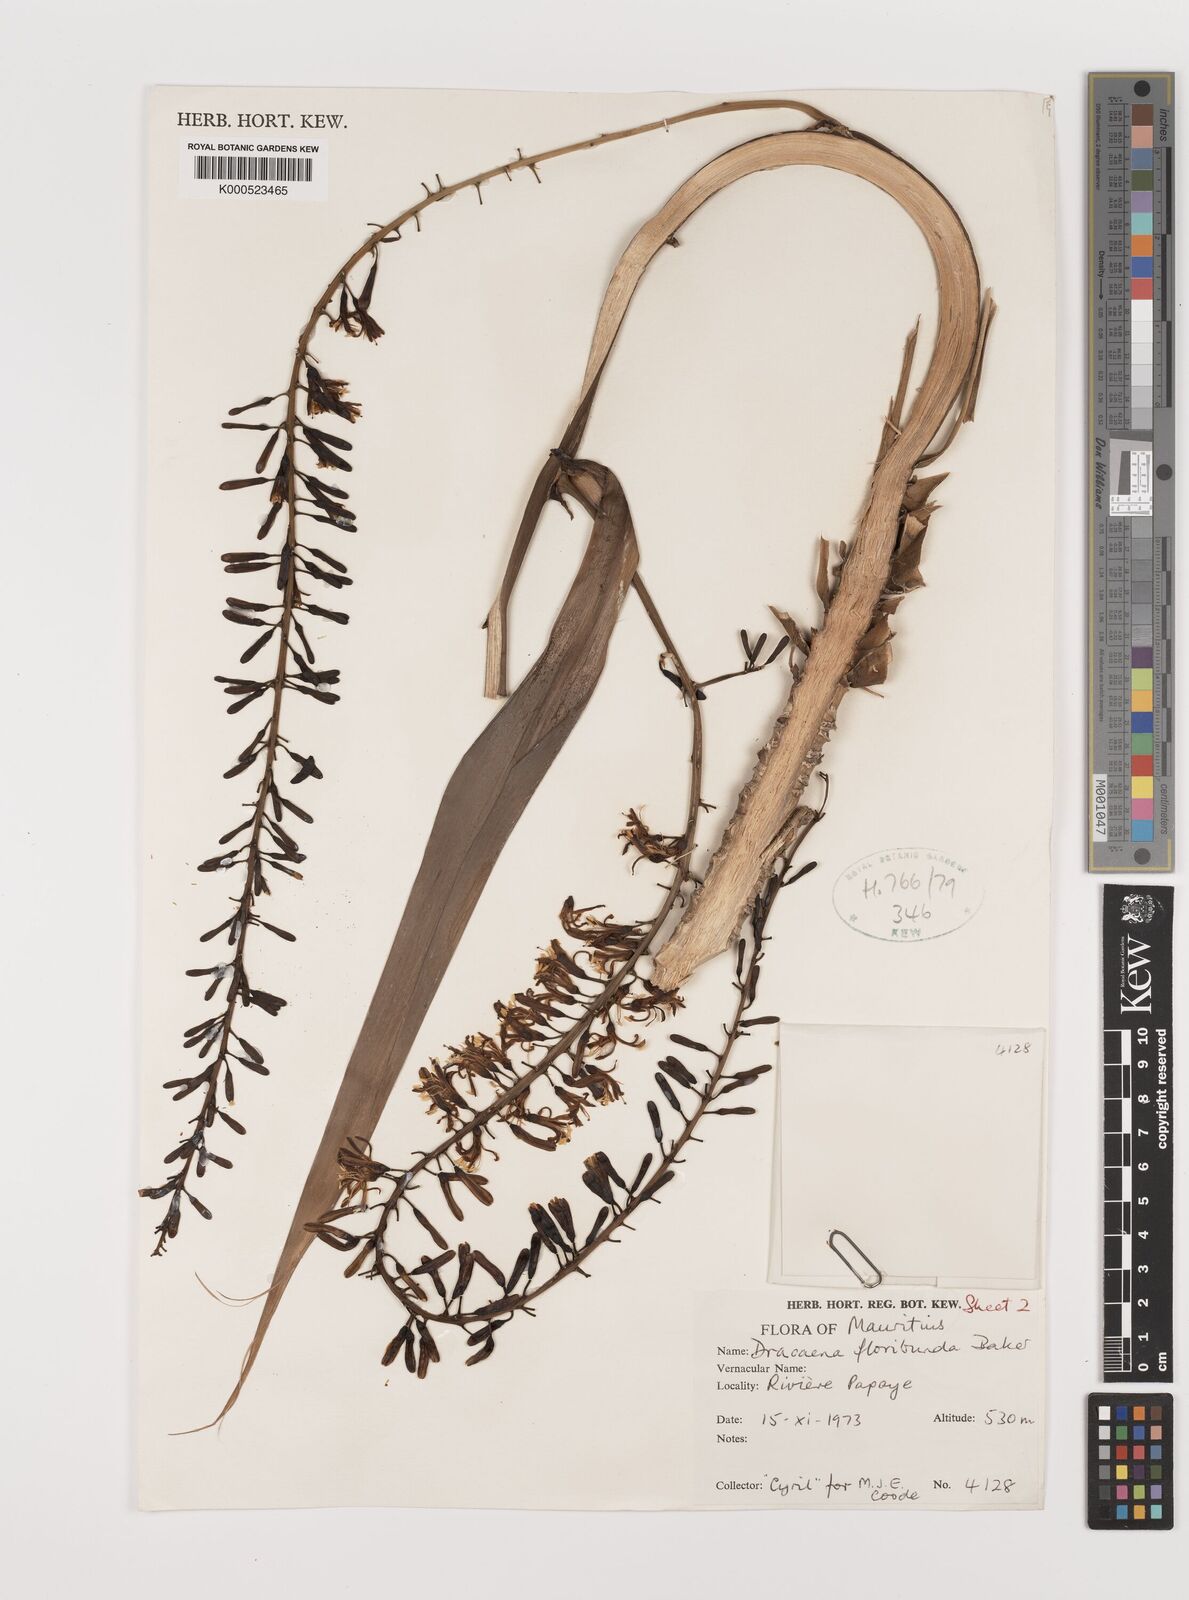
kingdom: Plantae
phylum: Tracheophyta
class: Liliopsida
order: Asparagales
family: Asparagaceae
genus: Dracaena
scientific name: Dracaena floribunda
